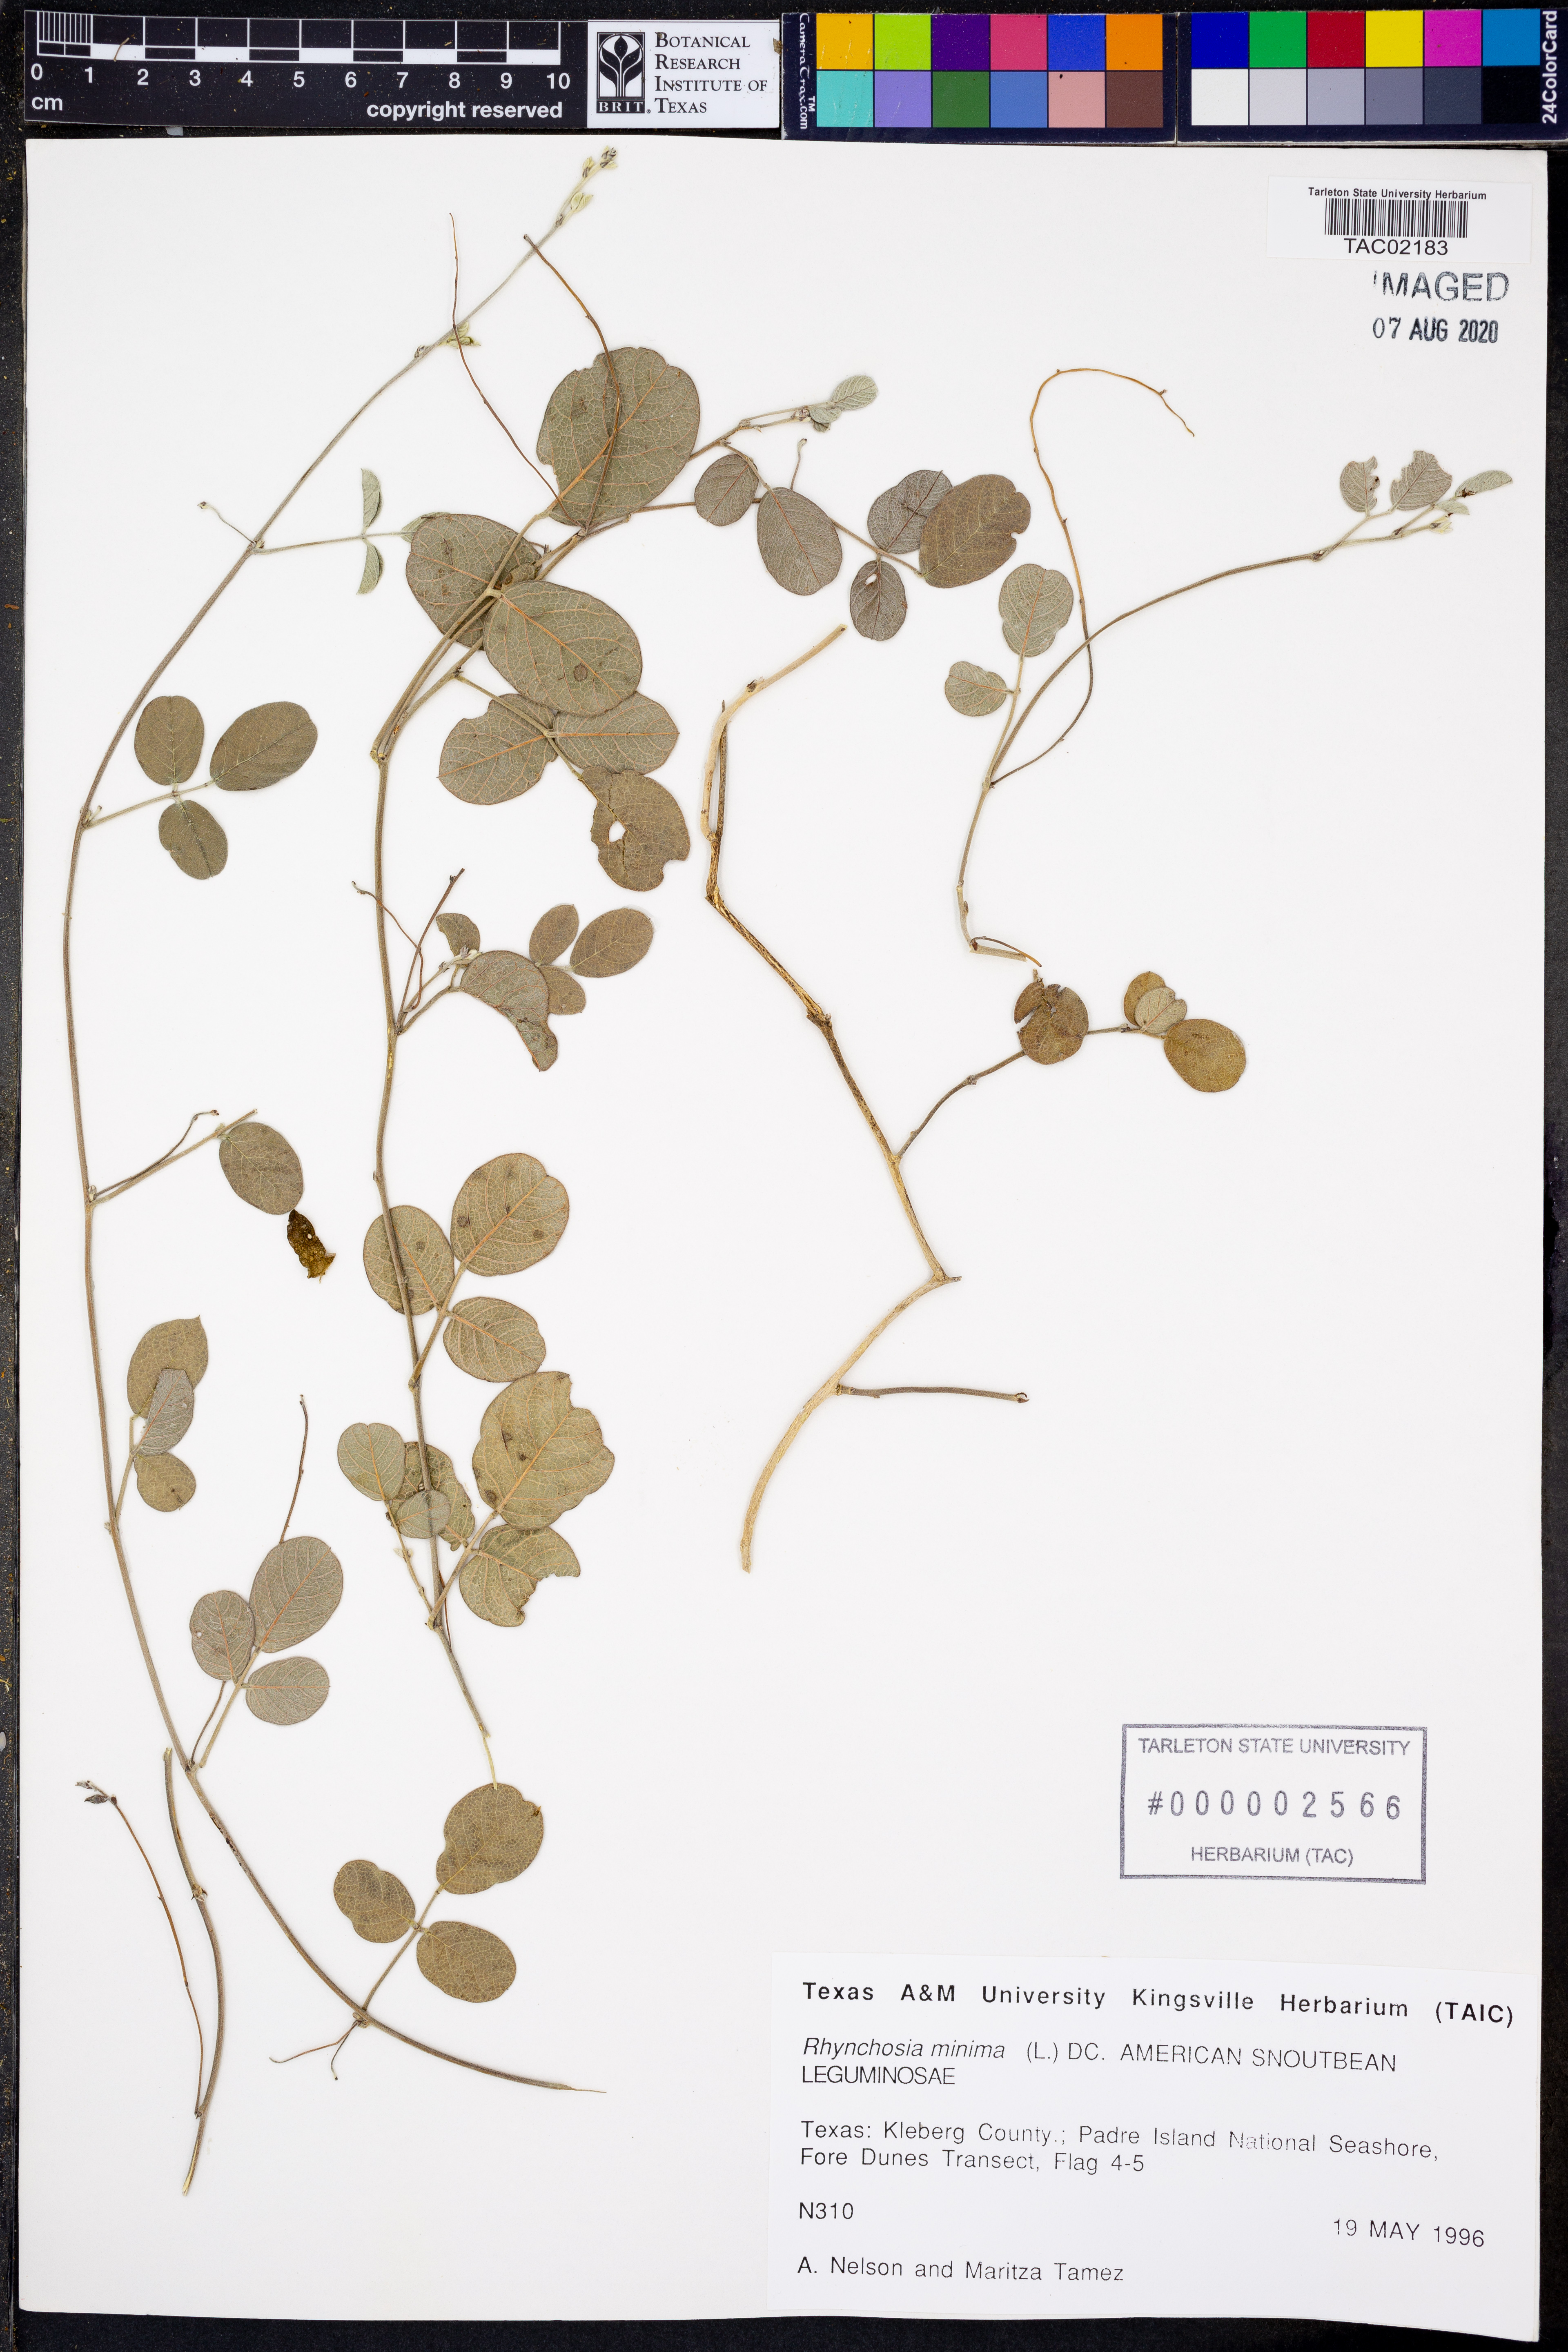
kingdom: Plantae
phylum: Tracheophyta
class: Magnoliopsida
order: Fabales
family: Fabaceae
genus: Rhynchosia
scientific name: Rhynchosia minima
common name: Least snoutbean
